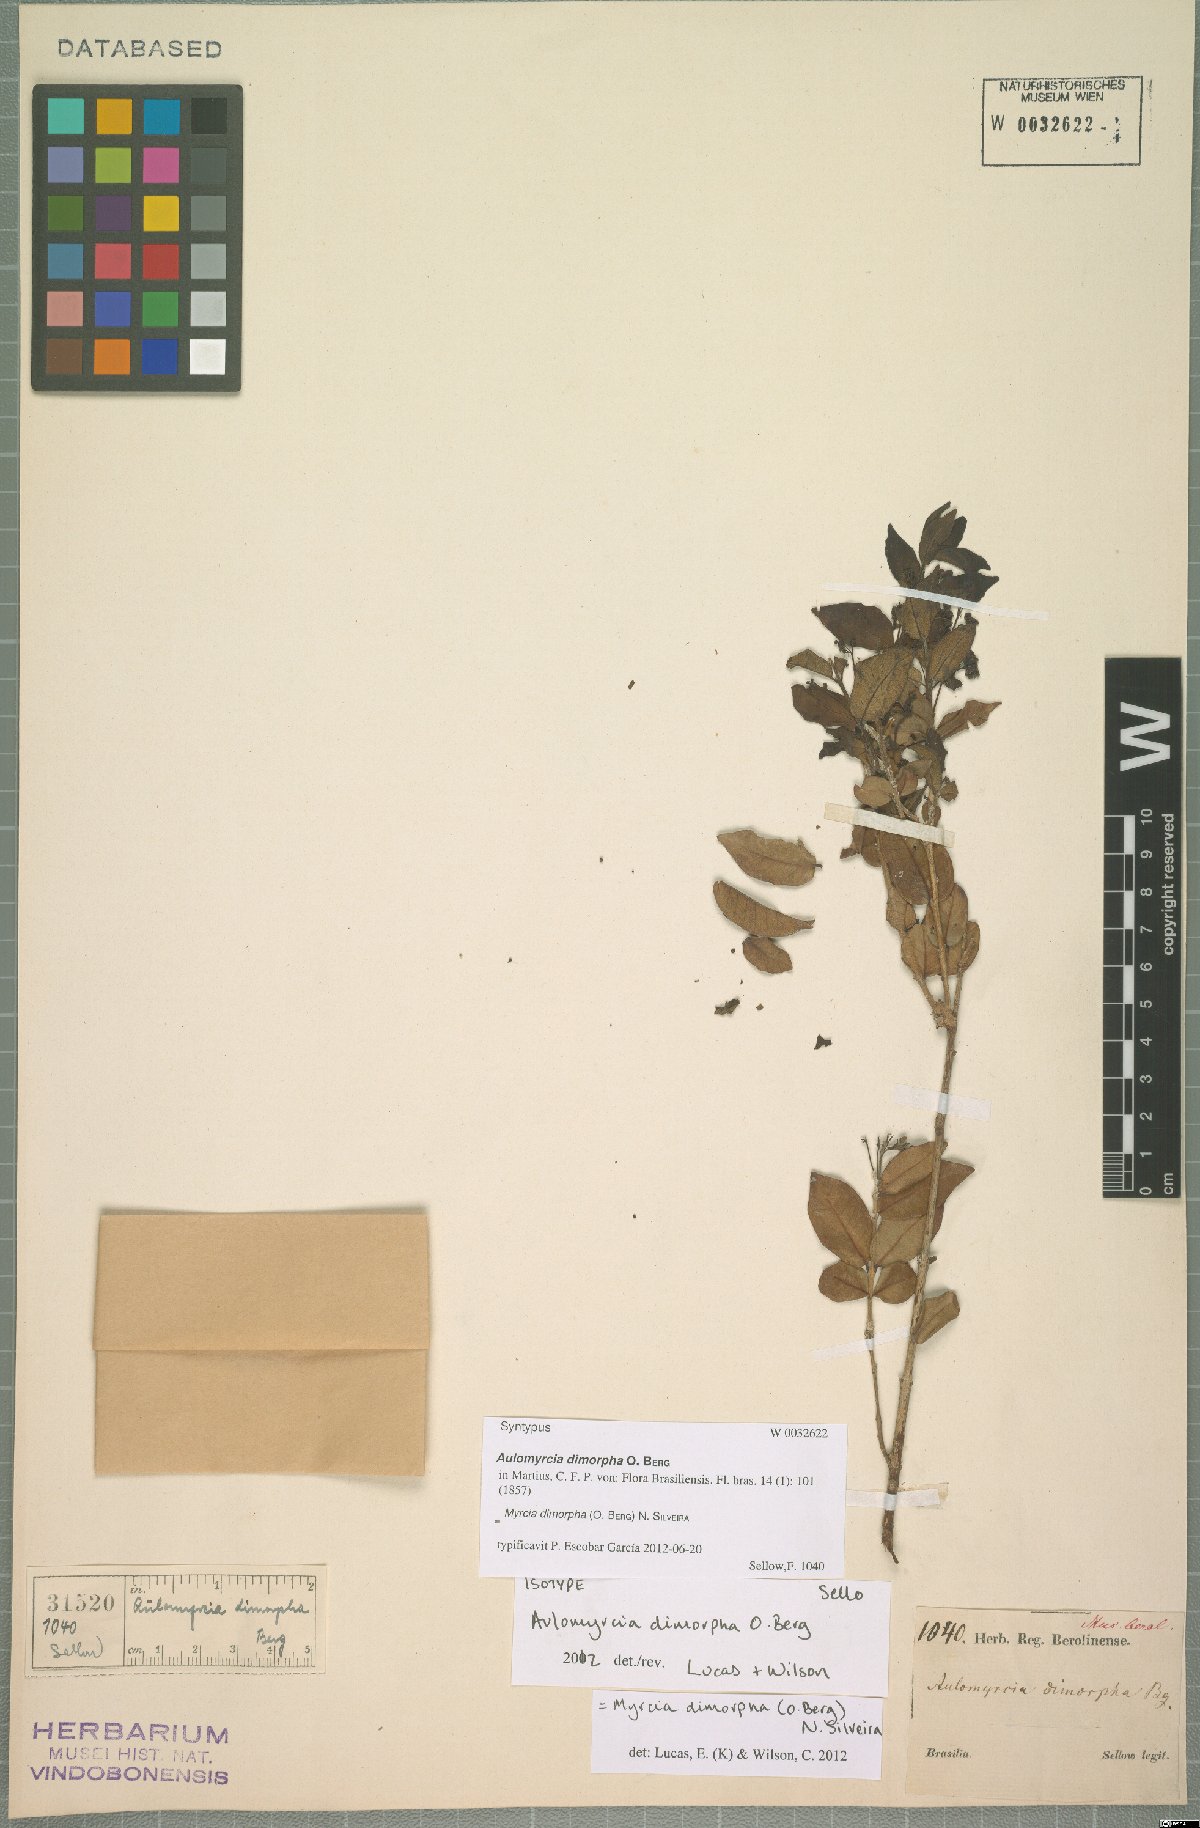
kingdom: Plantae
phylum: Tracheophyta
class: Magnoliopsida
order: Myrtales
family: Myrtaceae
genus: Myrcia
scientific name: Myrcia dimorpha
